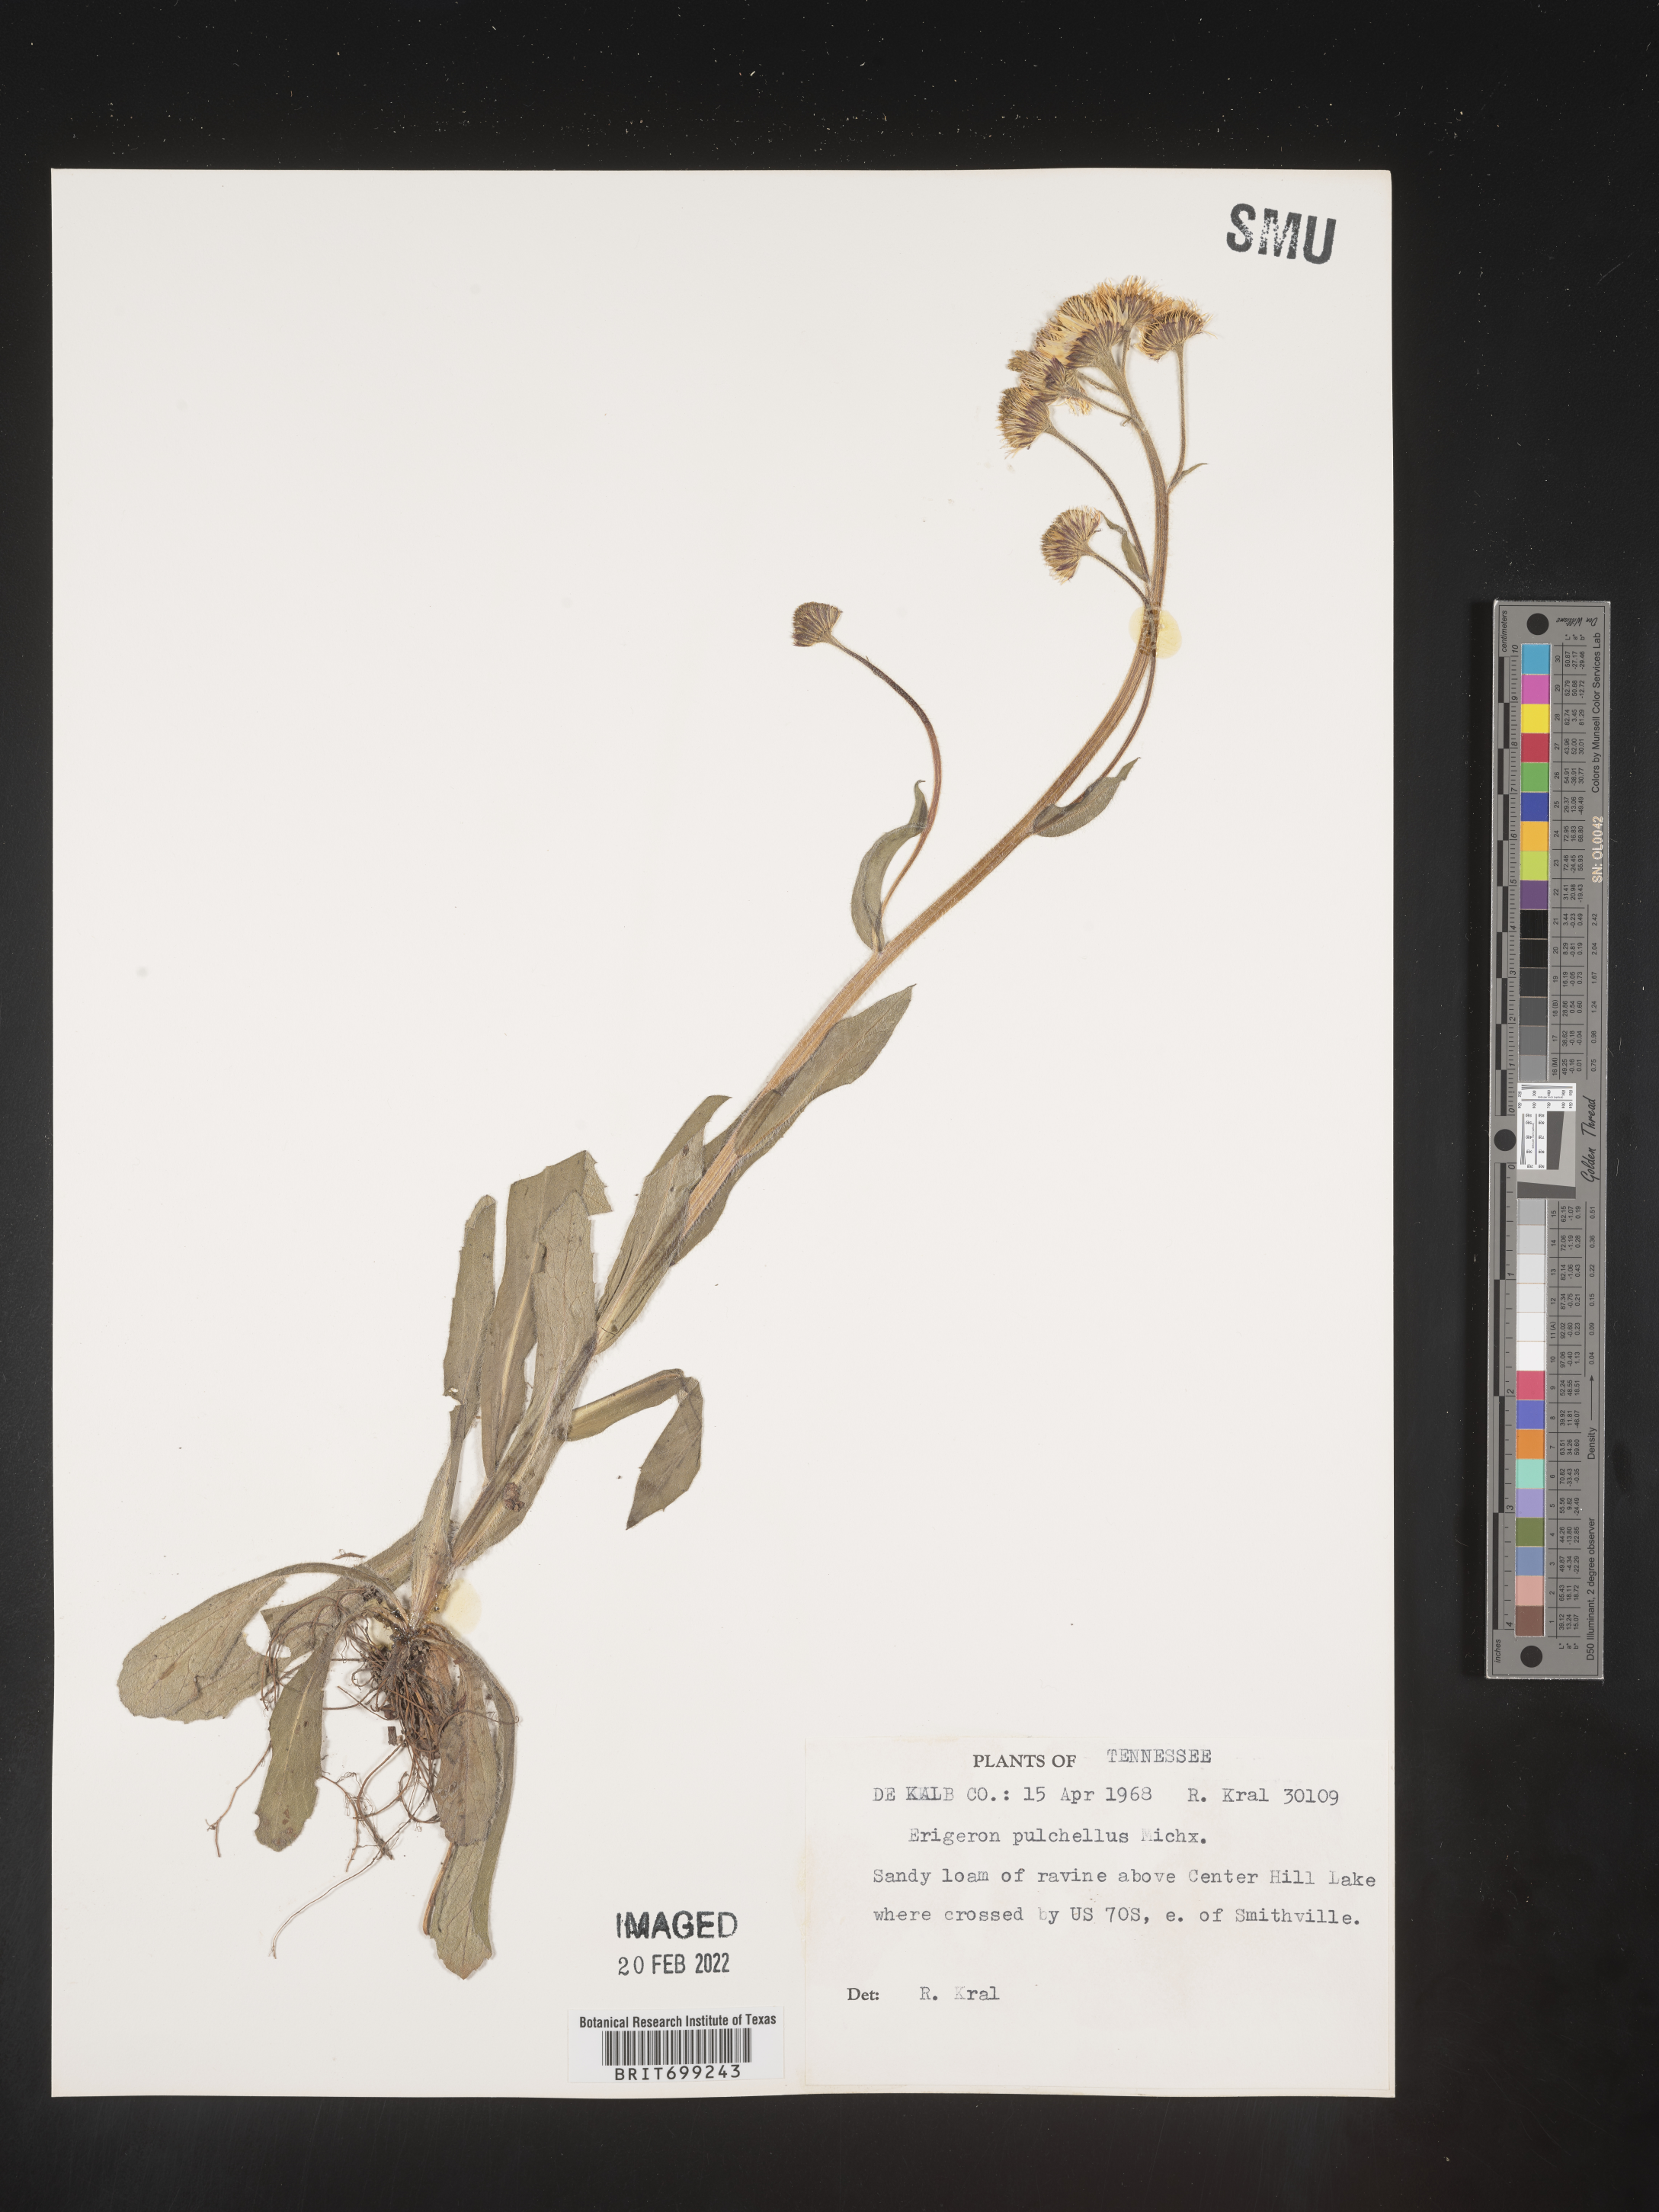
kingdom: Plantae
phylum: Tracheophyta
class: Magnoliopsida
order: Asterales
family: Asteraceae
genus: Erigeron
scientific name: Erigeron pulchellus
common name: Hairy fleabane
